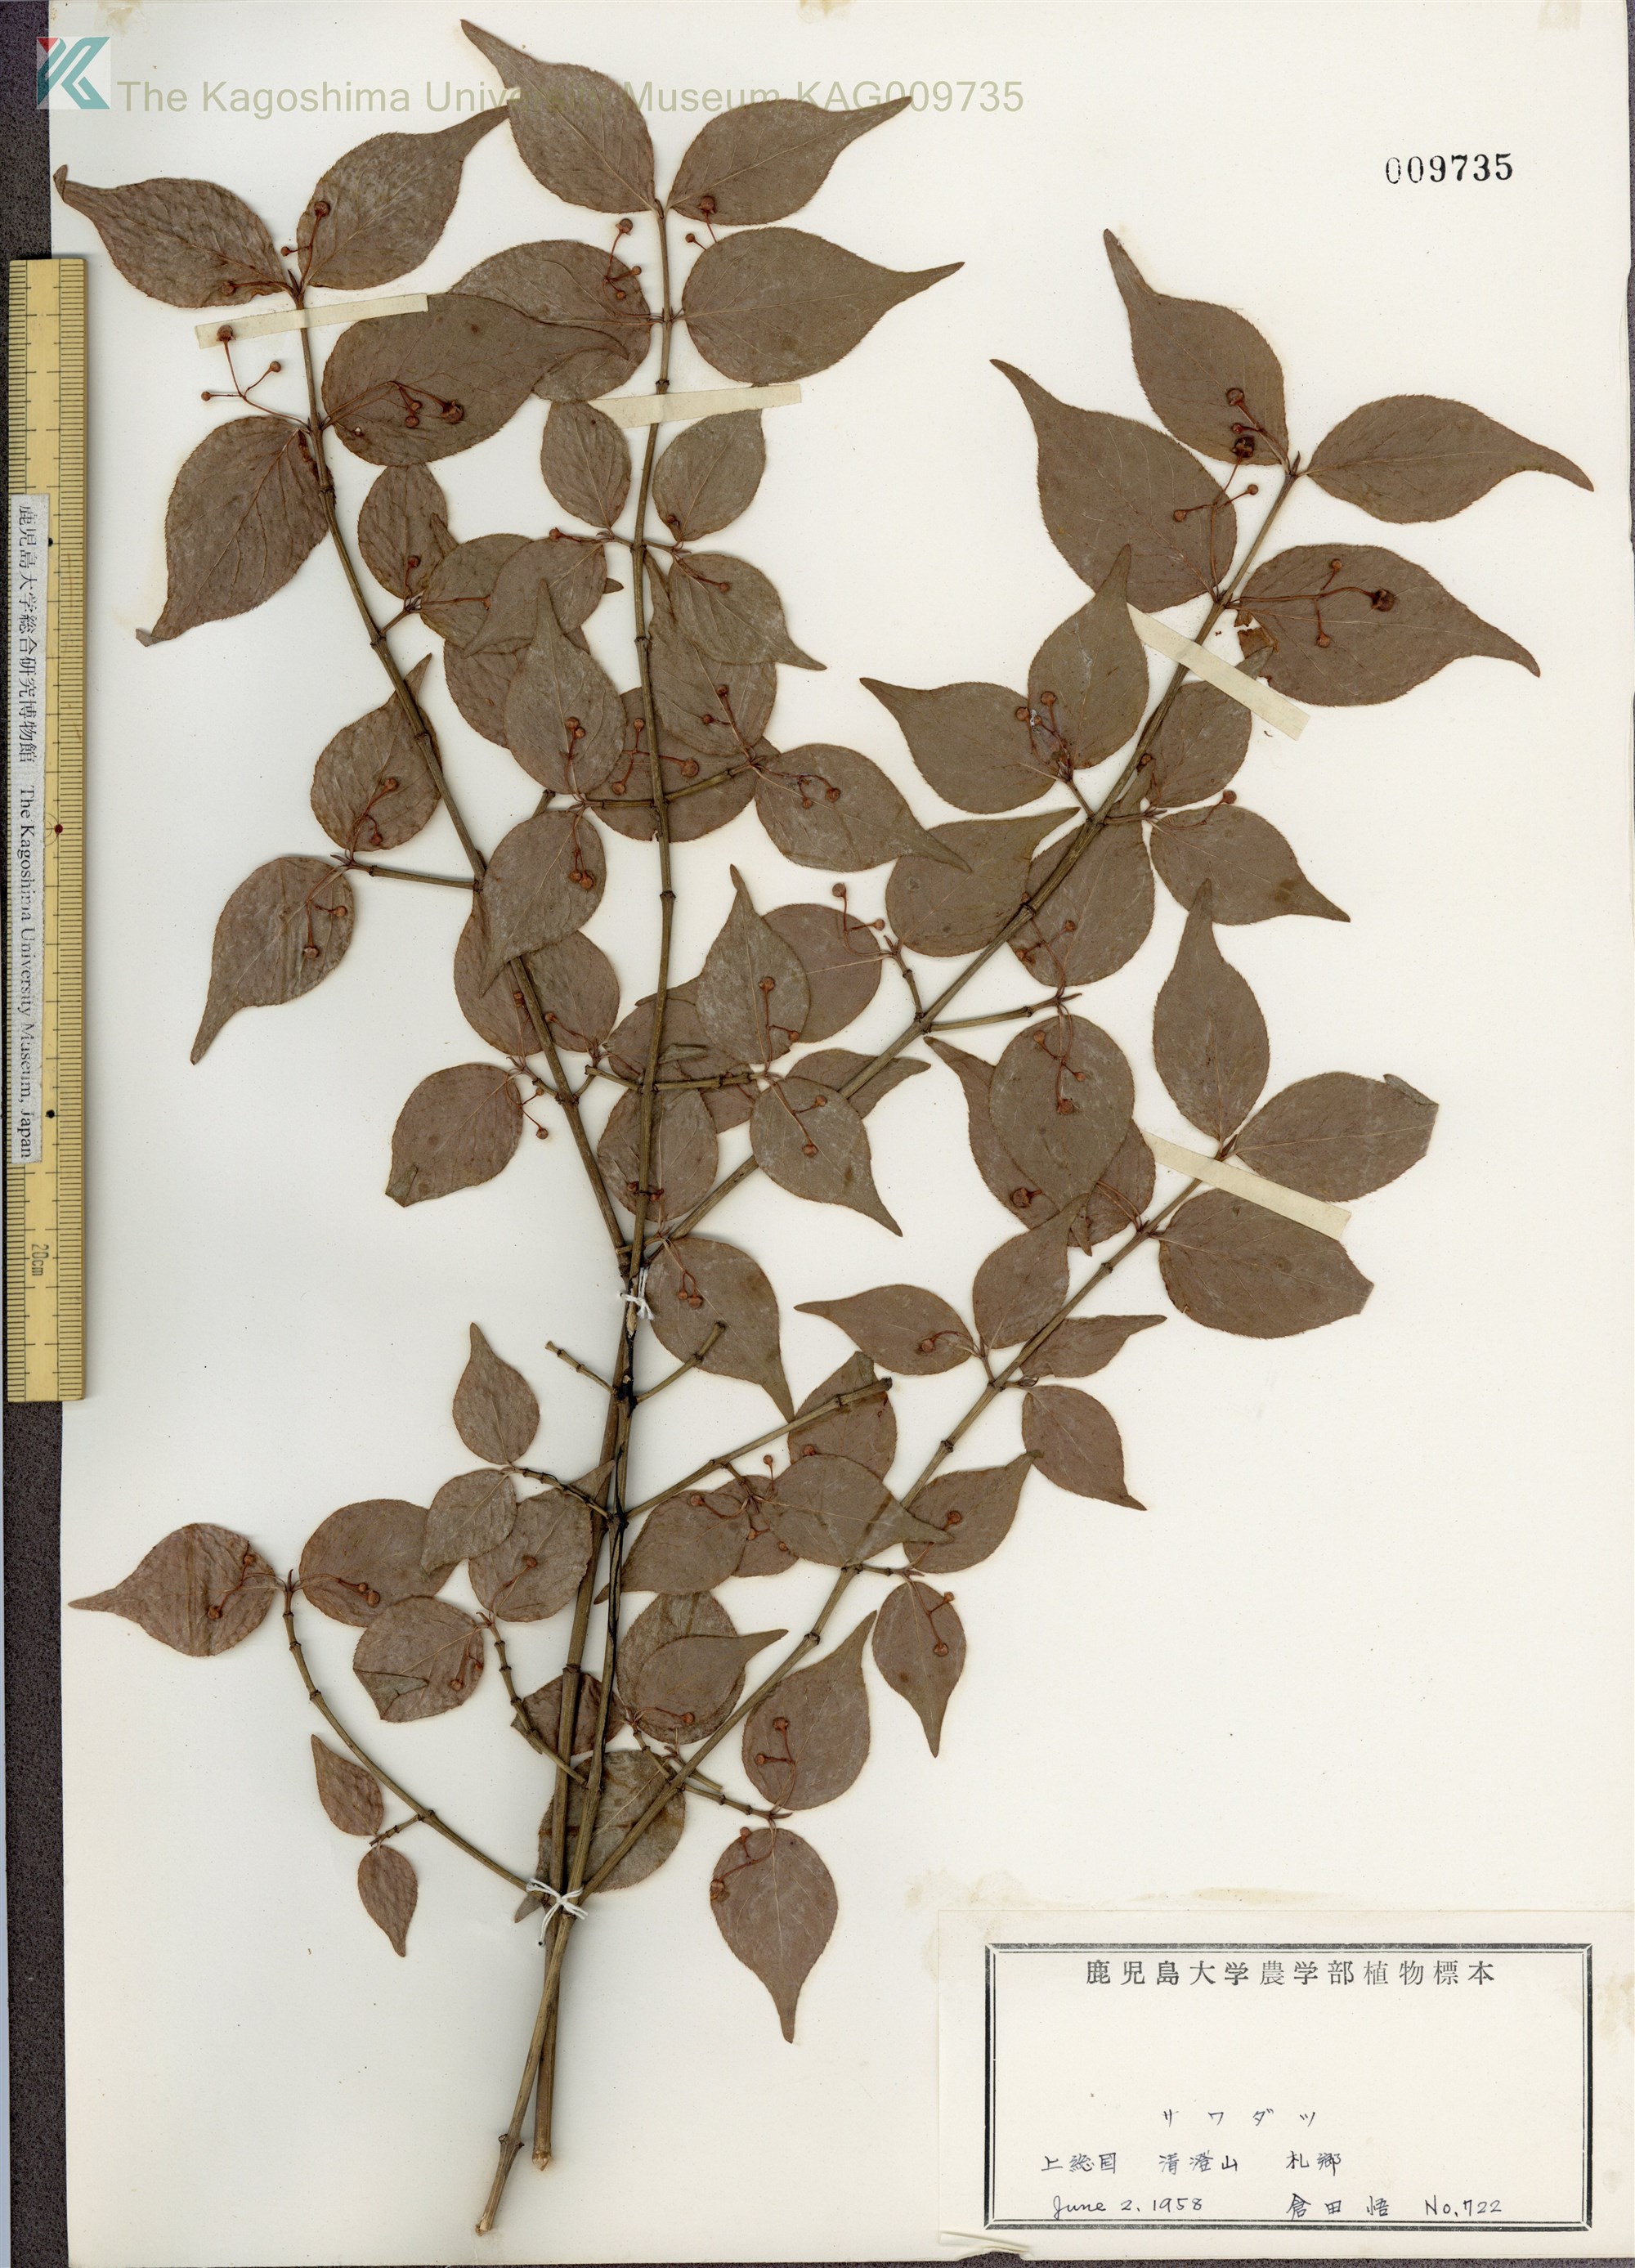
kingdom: Plantae
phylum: Tracheophyta
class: Magnoliopsida
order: Celastrales
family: Celastraceae
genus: Euonymus
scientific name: Euonymus melananthus
